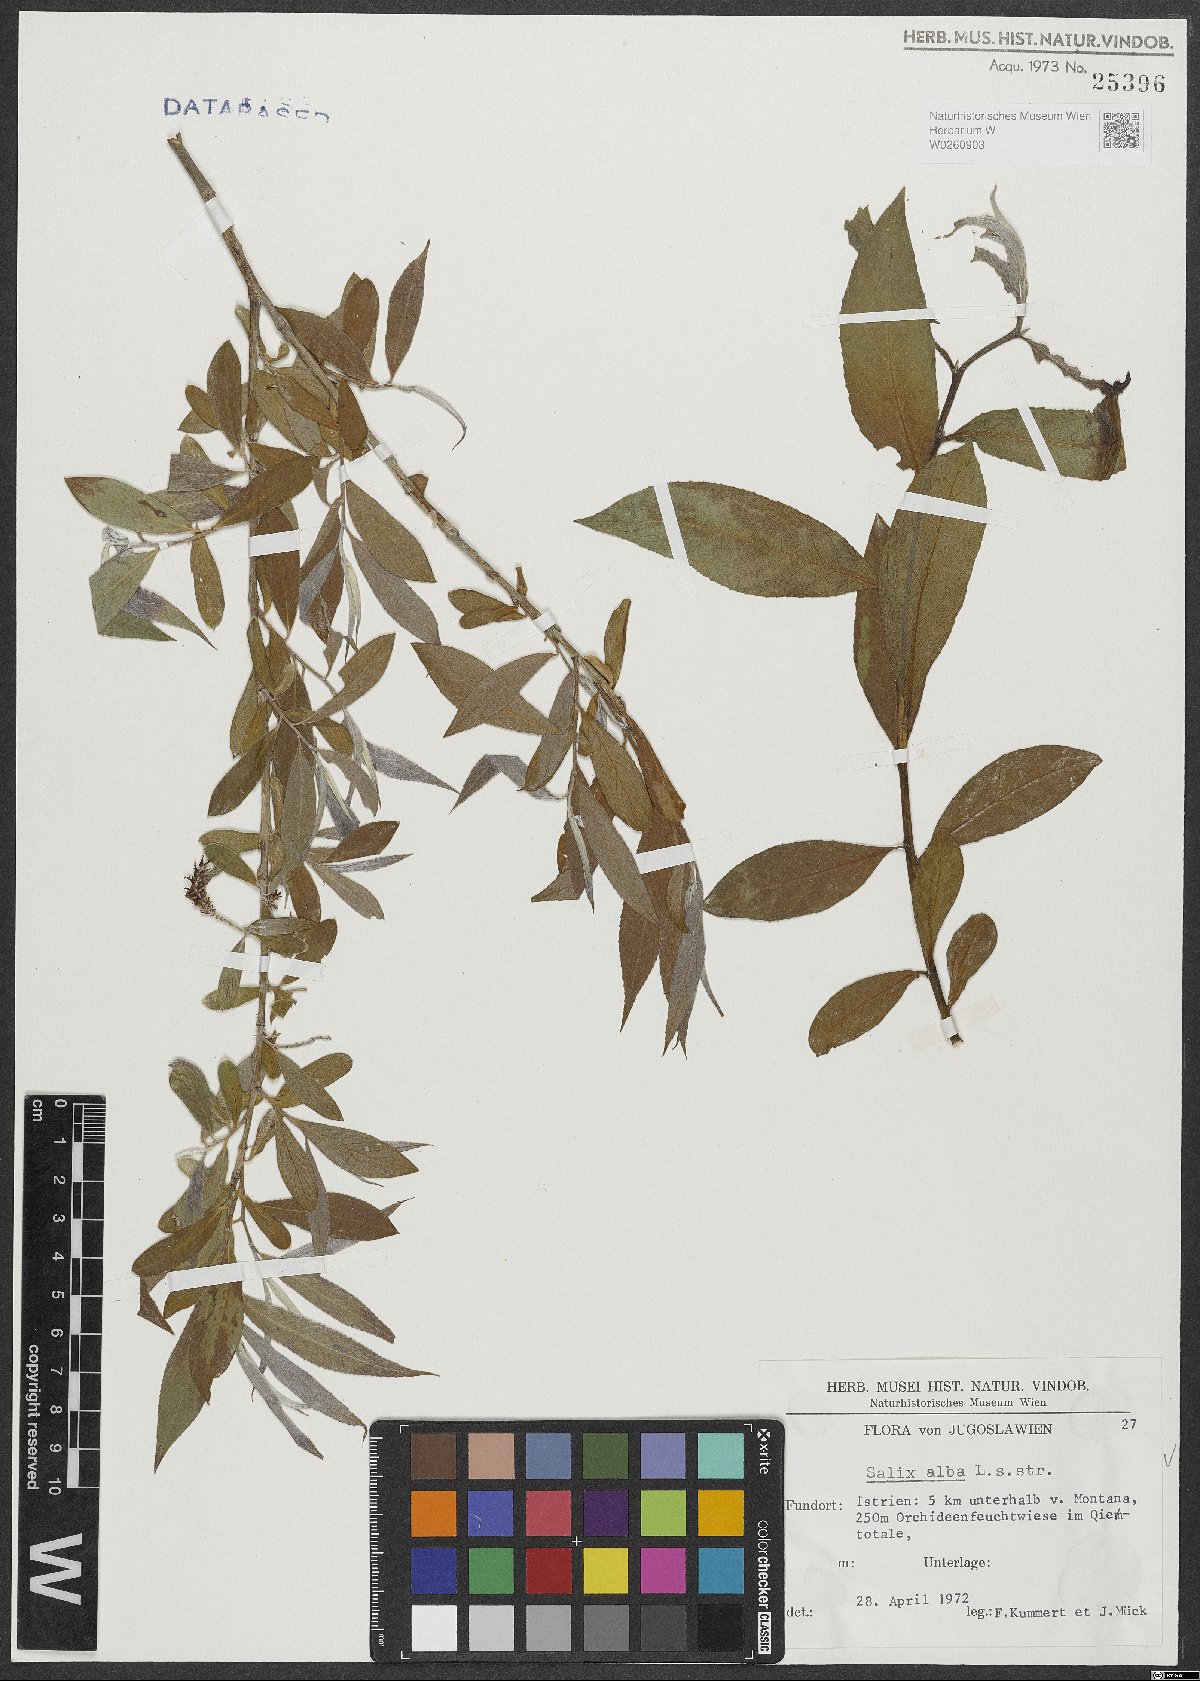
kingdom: Plantae
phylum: Tracheophyta
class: Magnoliopsida
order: Malpighiales
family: Salicaceae
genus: Salix
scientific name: Salix alba
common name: White willow
